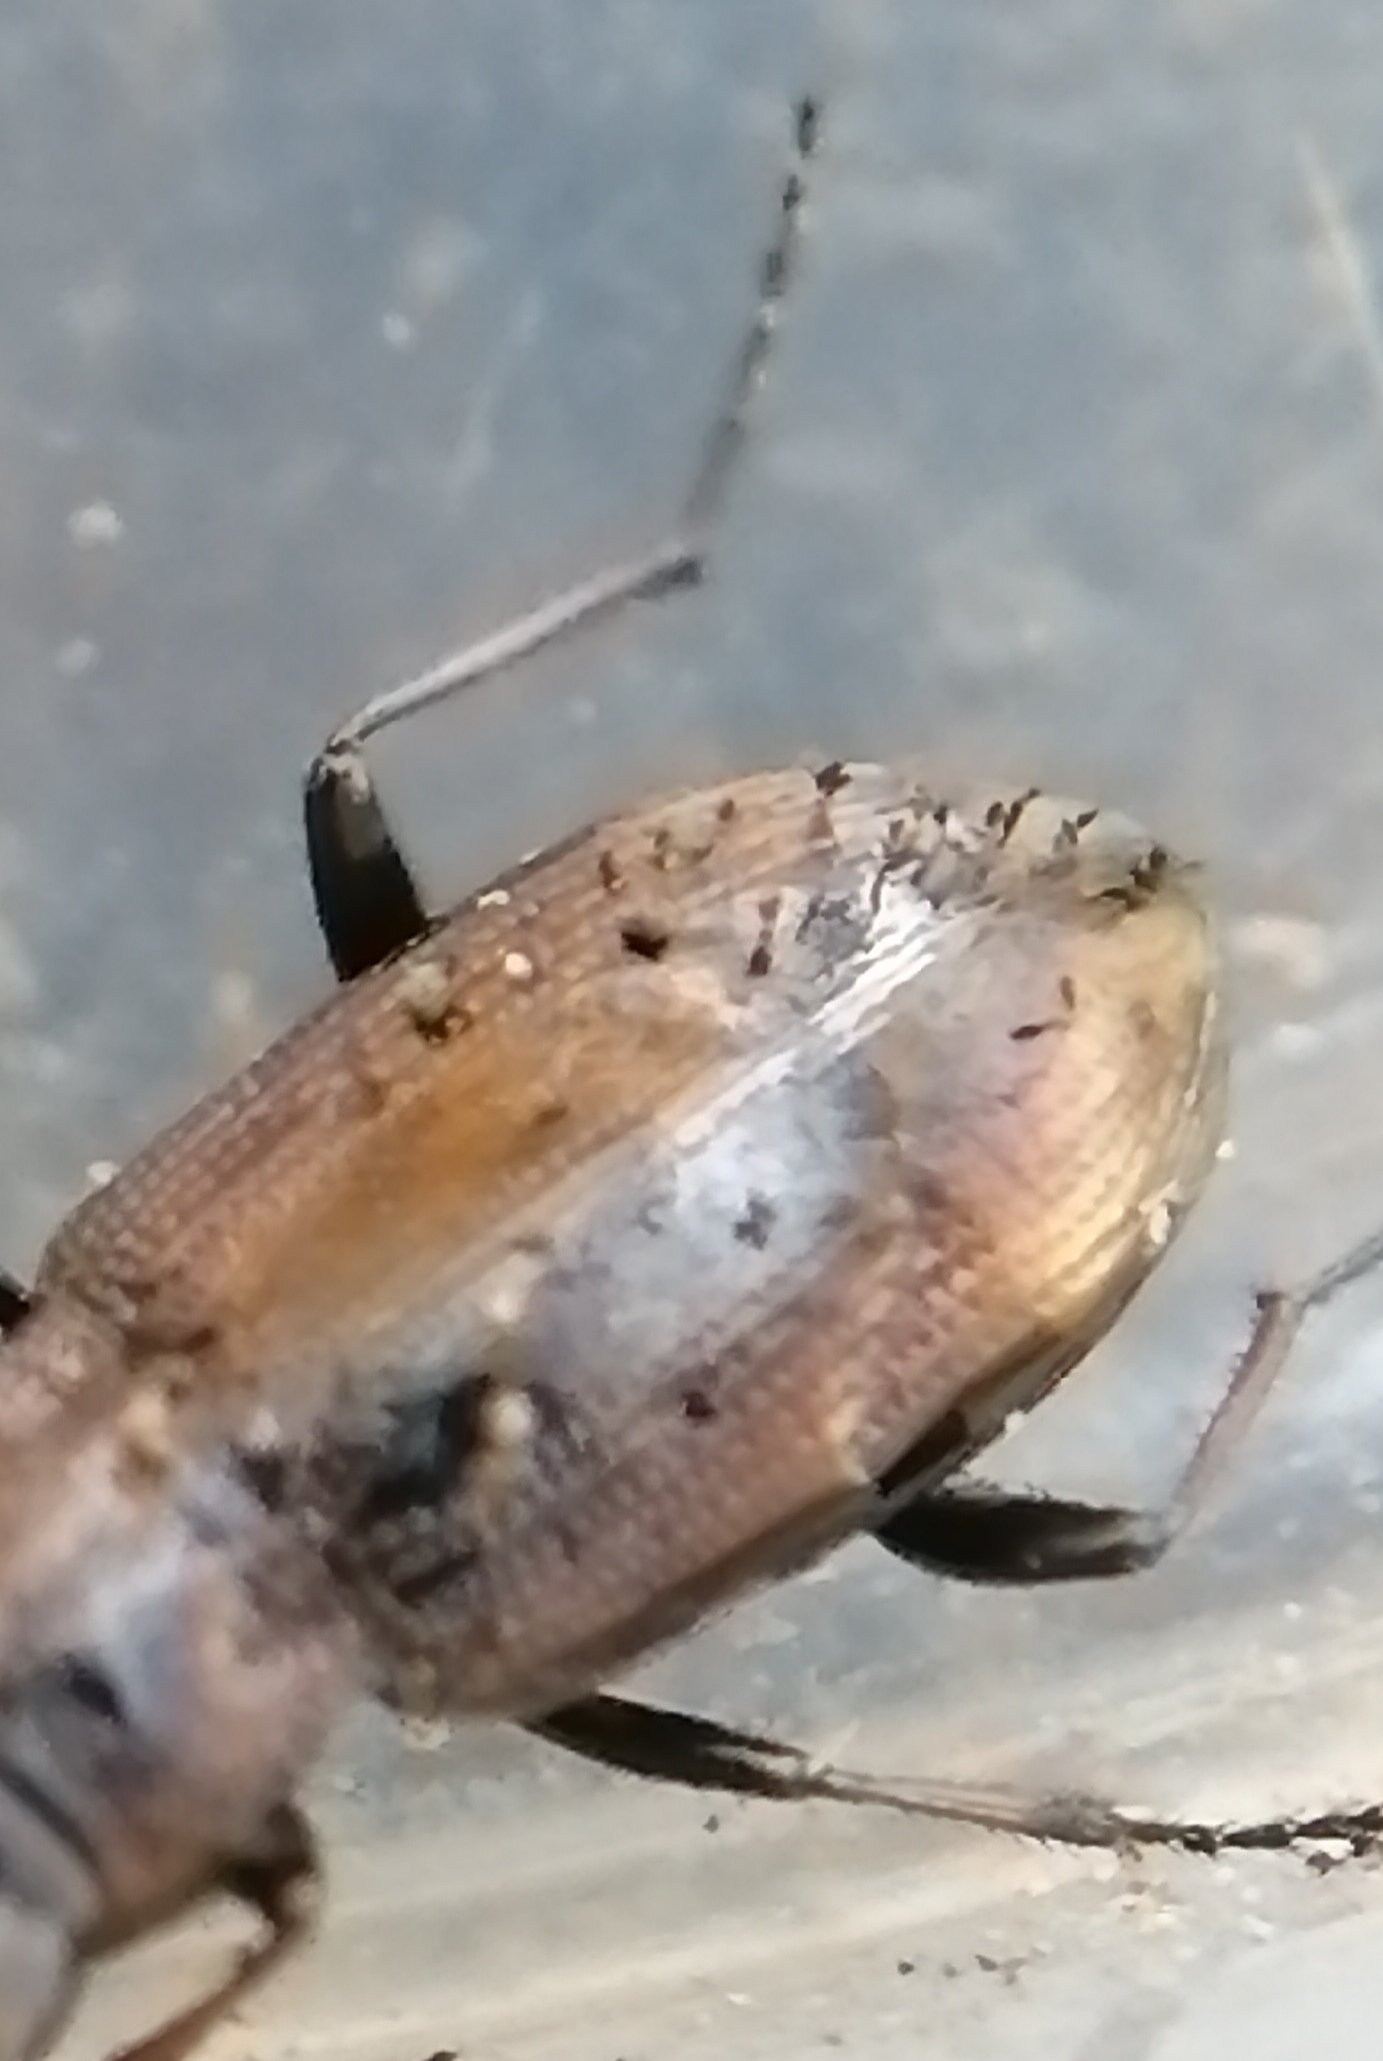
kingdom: Fungi
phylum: Ascomycota
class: Laboulbeniomycetes
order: Laboulbeniales
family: Laboulbeniaceae
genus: Laboulbenia
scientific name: Laboulbenia notiophili
